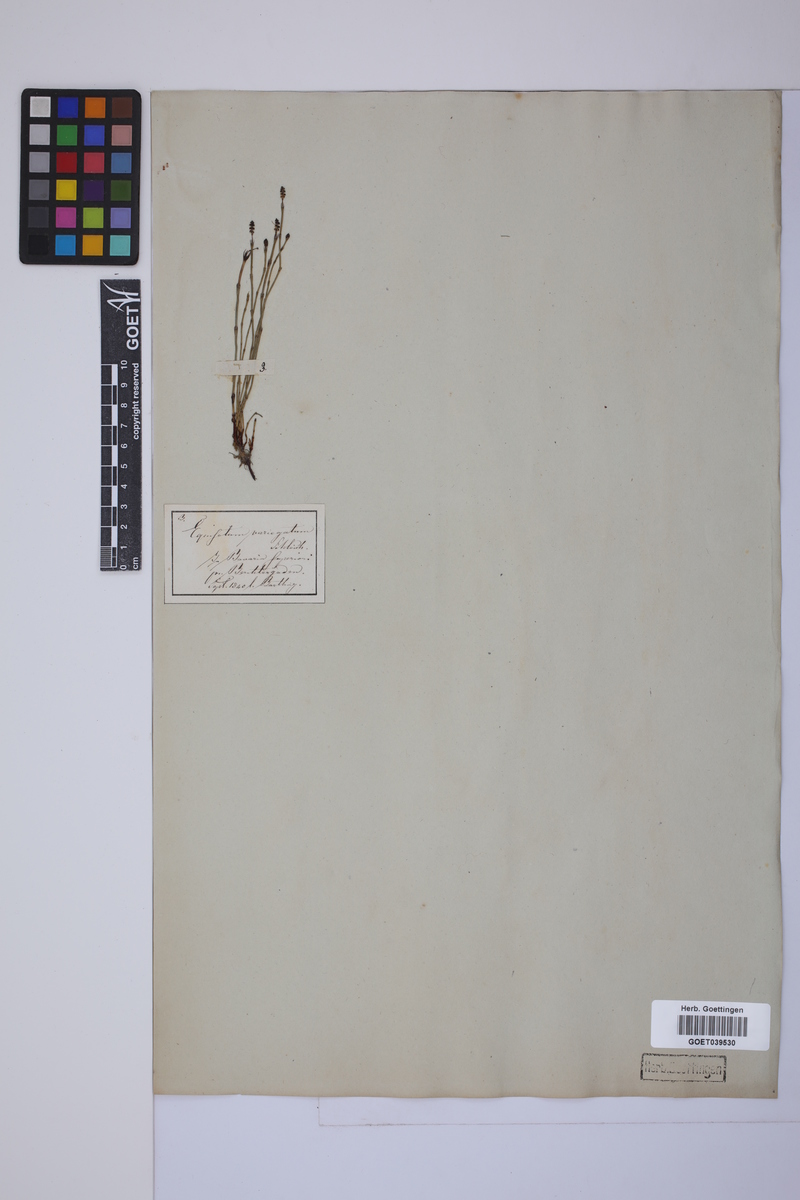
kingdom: Plantae
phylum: Tracheophyta
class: Polypodiopsida
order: Equisetales
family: Equisetaceae
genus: Equisetum
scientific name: Equisetum variegatum
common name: Variegated horsetail
